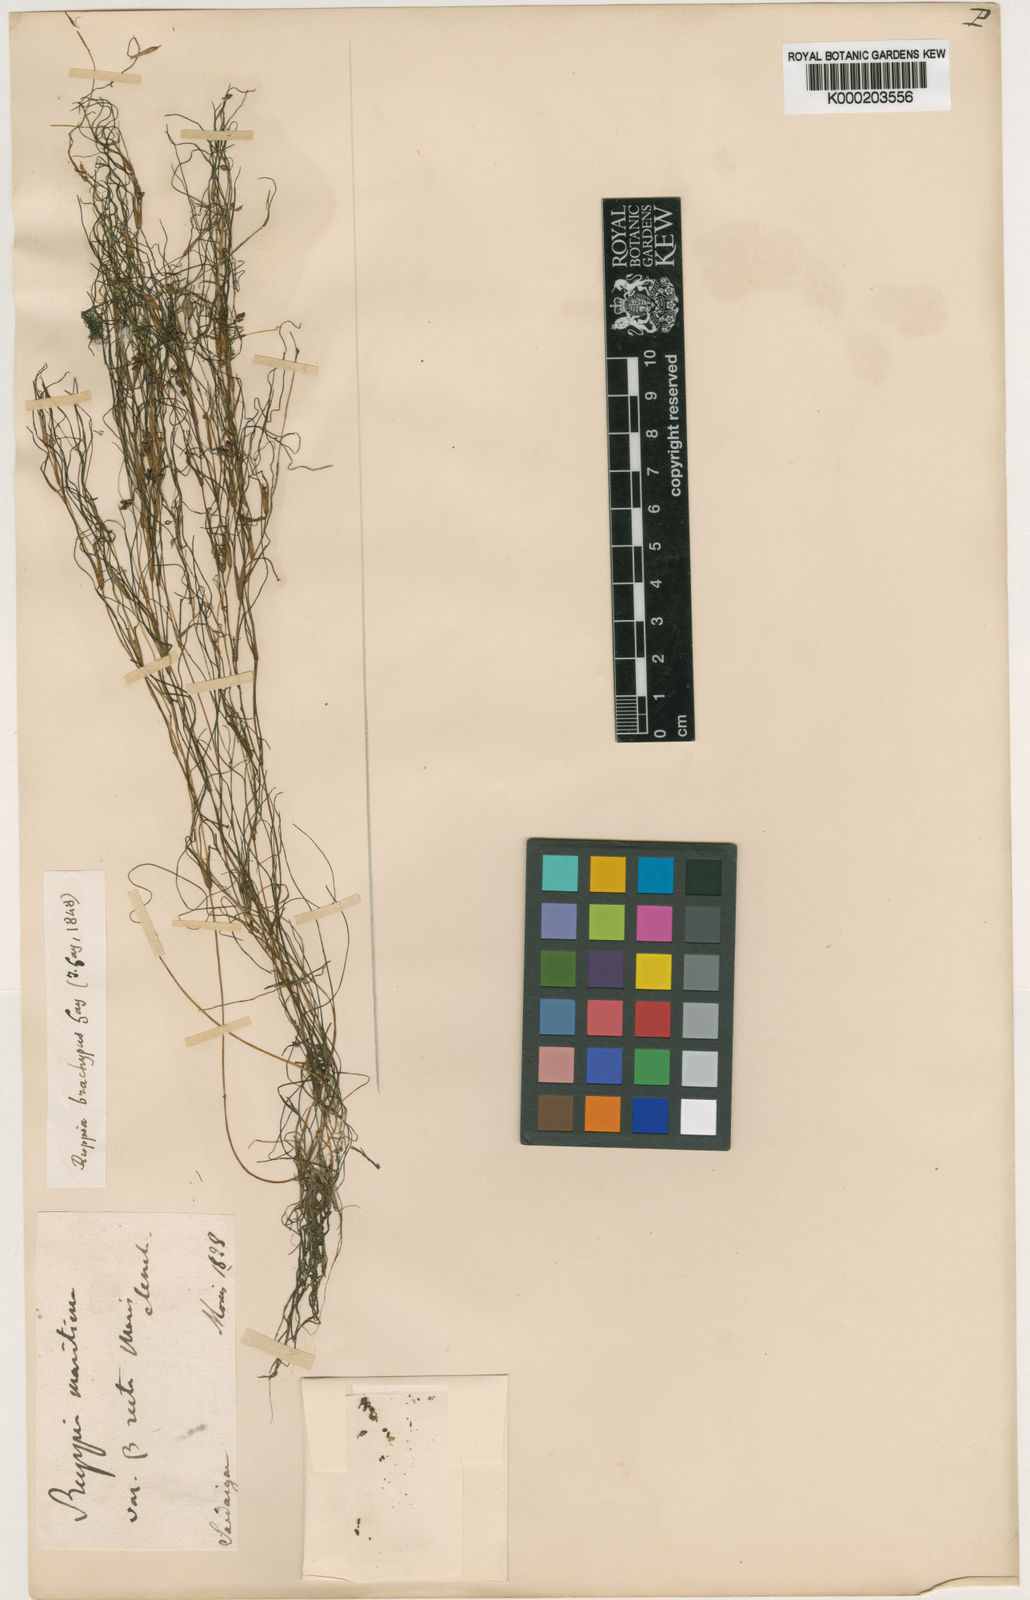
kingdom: Plantae
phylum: Tracheophyta
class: Liliopsida
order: Alismatales
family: Ruppiaceae
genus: Ruppia
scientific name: Ruppia maritima
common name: Beaked tasselweed
